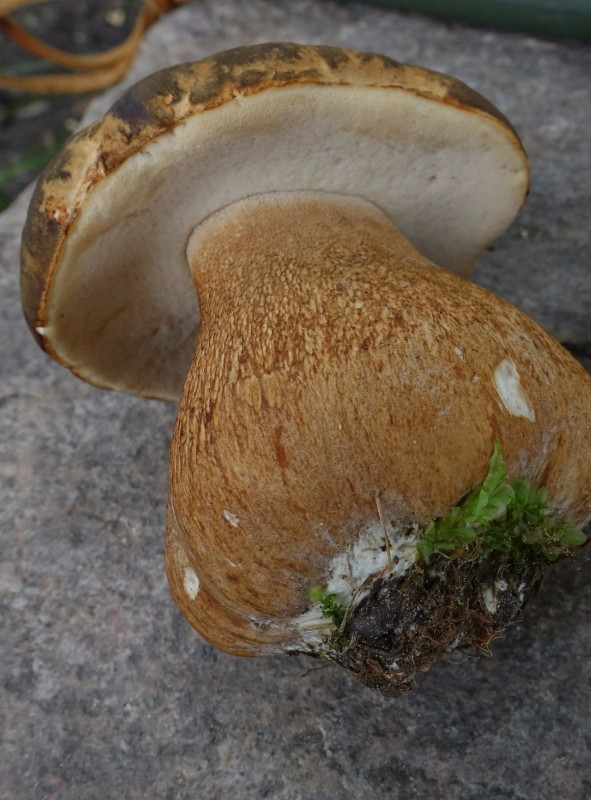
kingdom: Fungi
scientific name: Fungi
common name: bronze-rørhat
